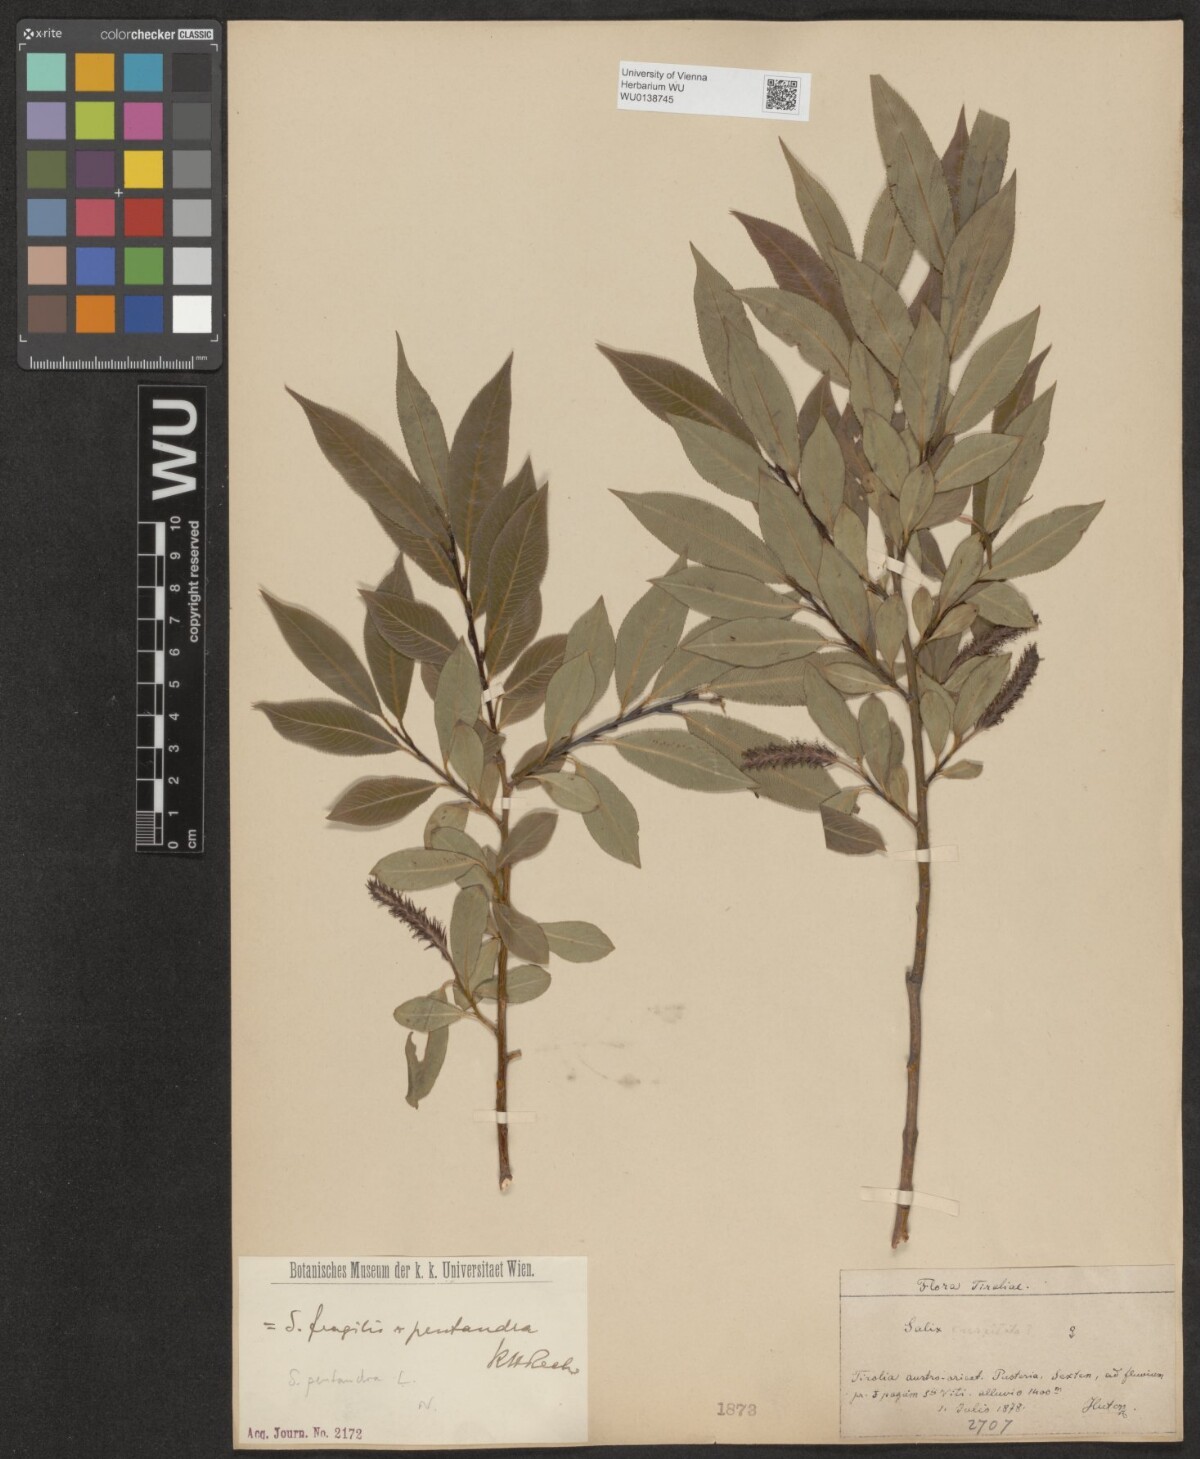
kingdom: Plantae
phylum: Tracheophyta
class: Magnoliopsida
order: Malpighiales
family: Salicaceae
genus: Salix
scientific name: Salix pentandra
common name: Bay willow
